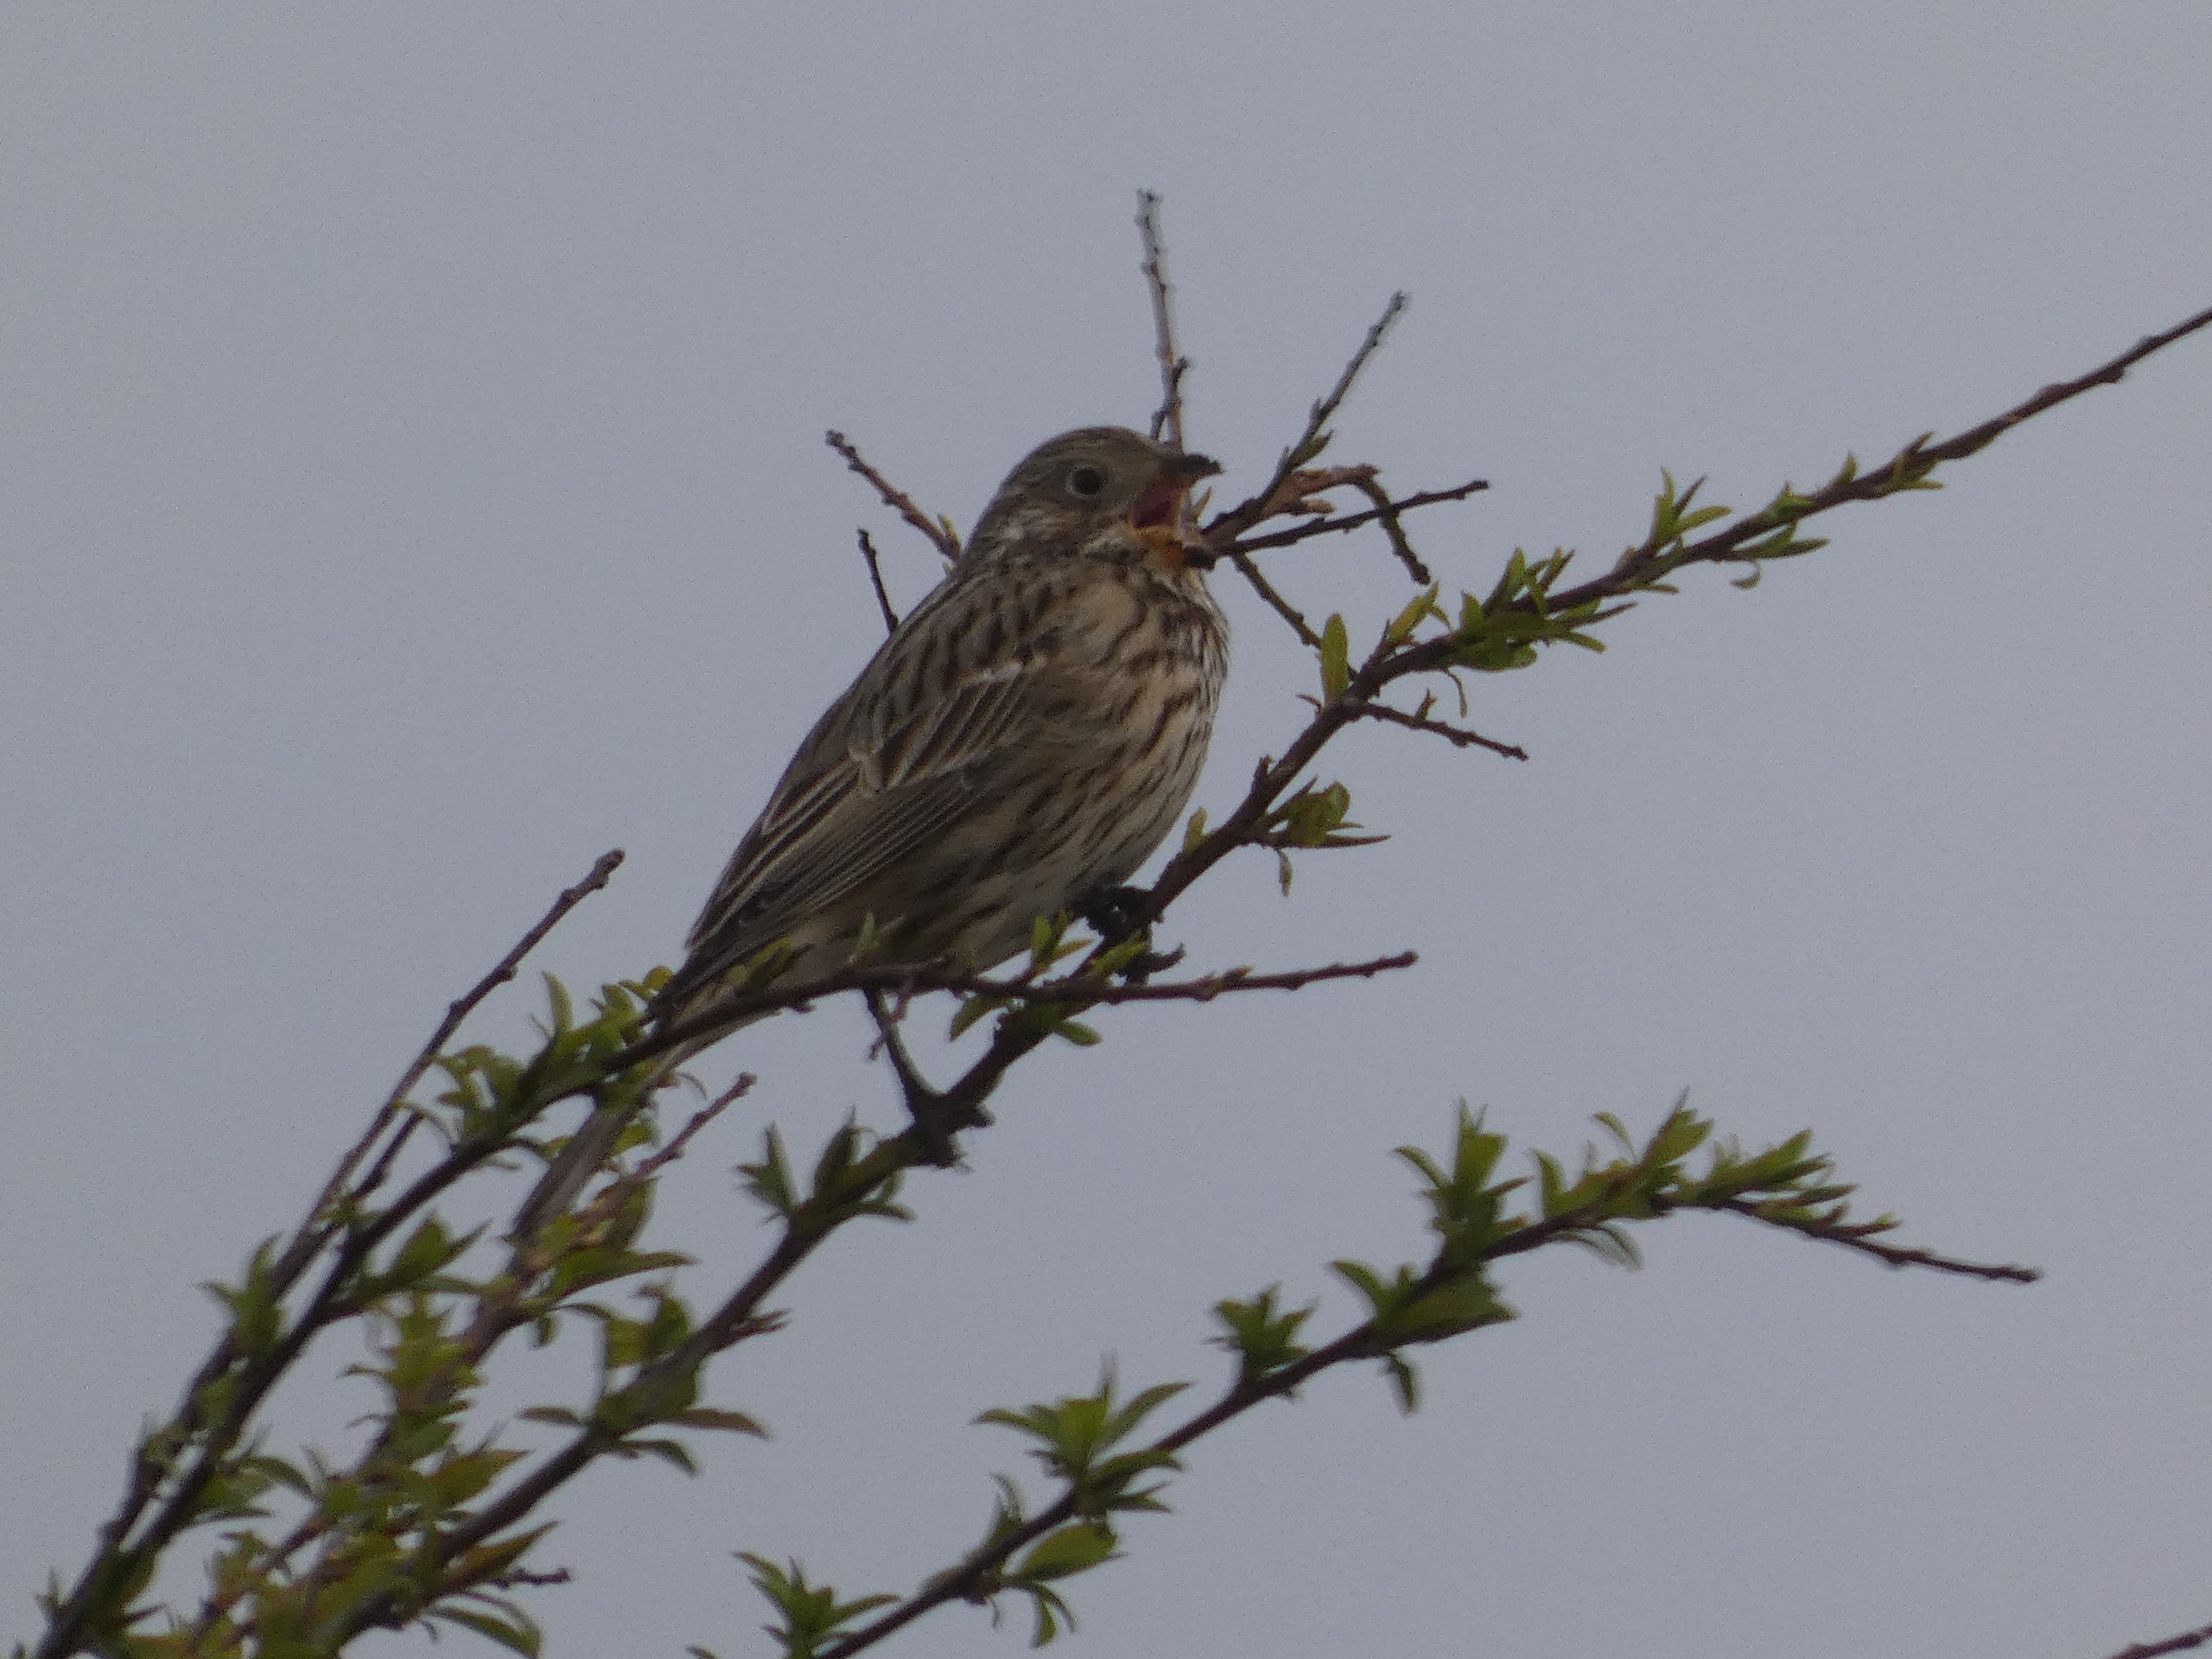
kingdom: Animalia
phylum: Chordata
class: Aves
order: Passeriformes
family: Emberizidae
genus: Emberiza
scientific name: Emberiza calandra
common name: Bomlærke
